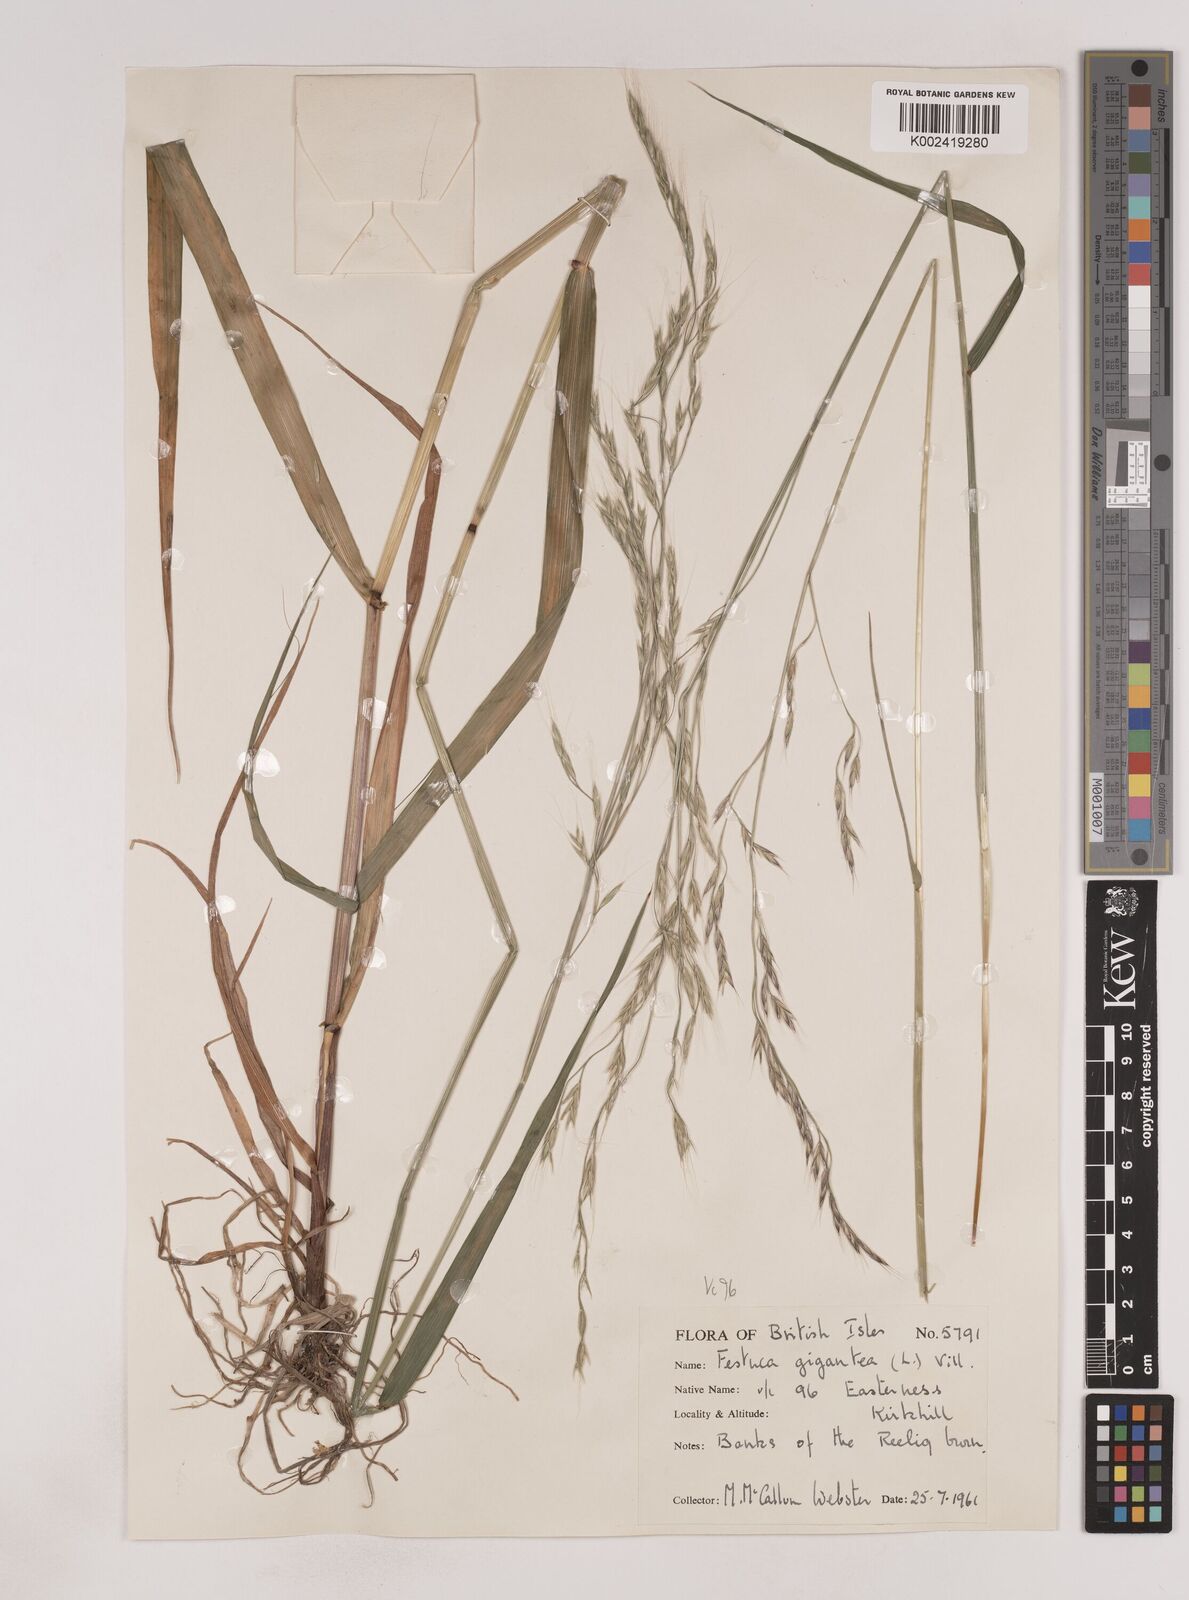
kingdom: Plantae
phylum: Tracheophyta
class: Liliopsida
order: Poales
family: Poaceae
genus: Lolium
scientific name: Lolium giganteum
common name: Giant fescue
